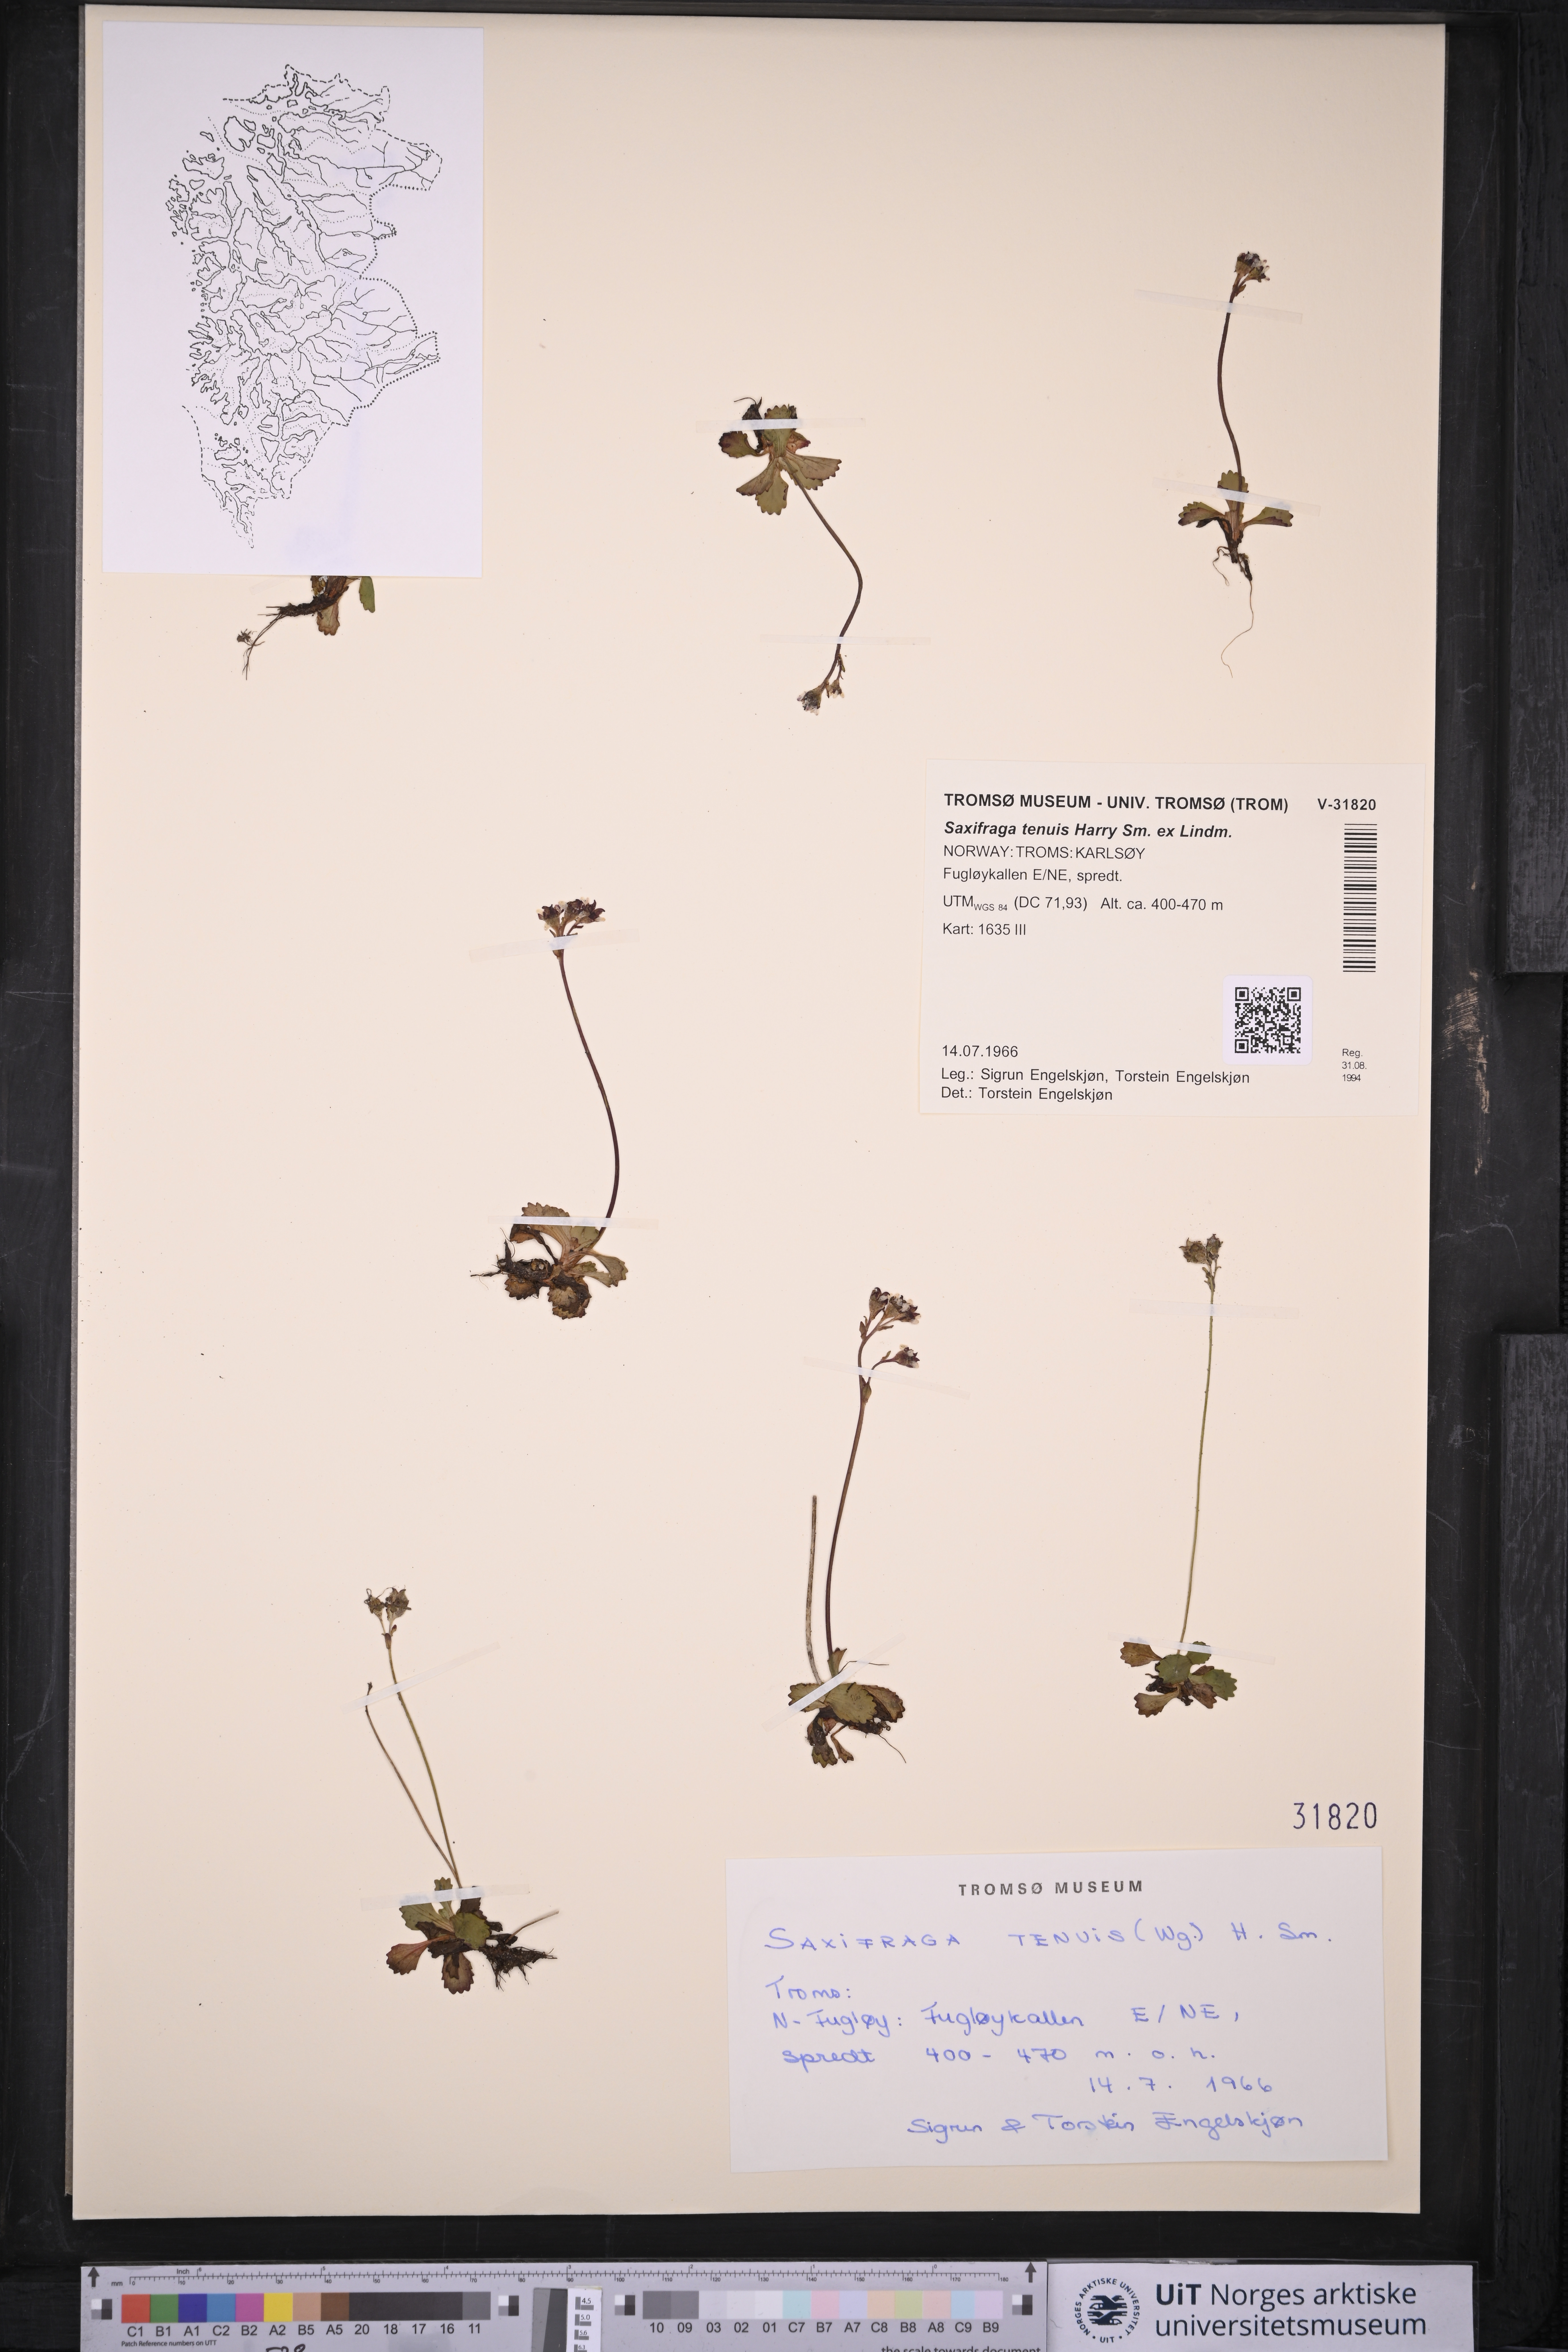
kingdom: Plantae
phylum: Tracheophyta
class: Magnoliopsida
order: Saxifragales
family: Saxifragaceae
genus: Micranthes
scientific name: Micranthes tenuis
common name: Ottertail pass saxifrage
